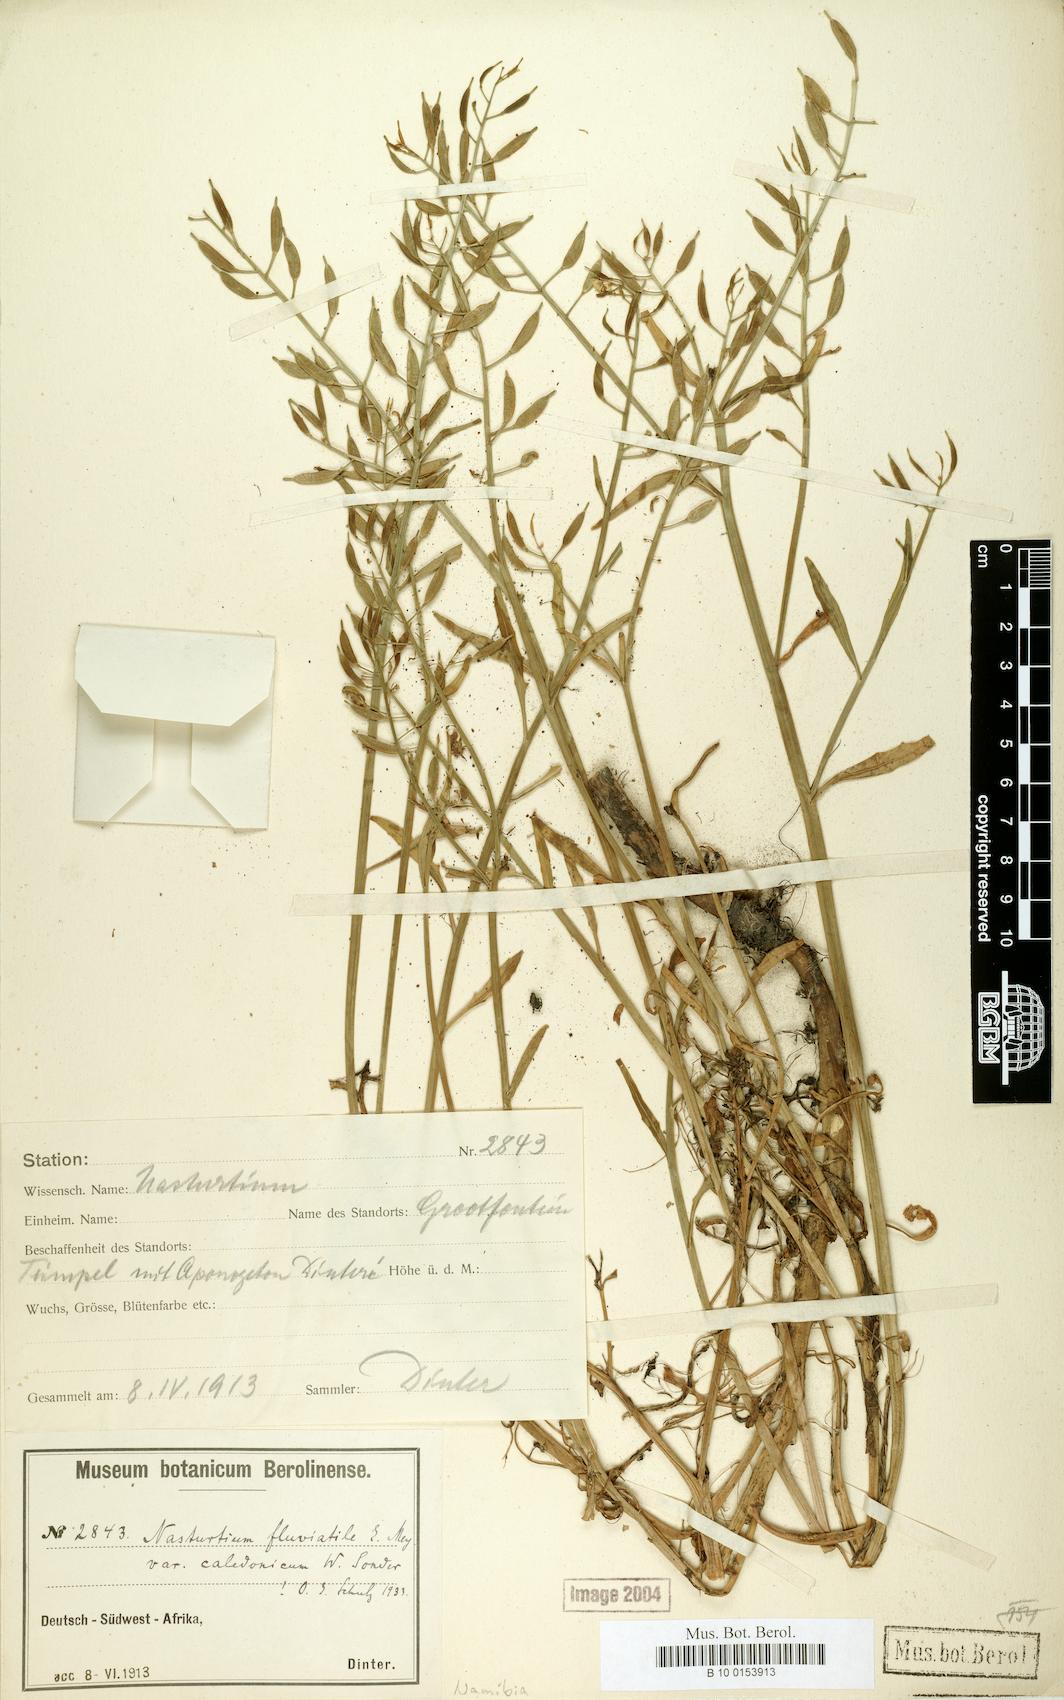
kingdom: Plantae
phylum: Tracheophyta
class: Magnoliopsida
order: Brassicales
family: Brassicaceae
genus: Rorippa
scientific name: Rorippa fluviatilis
